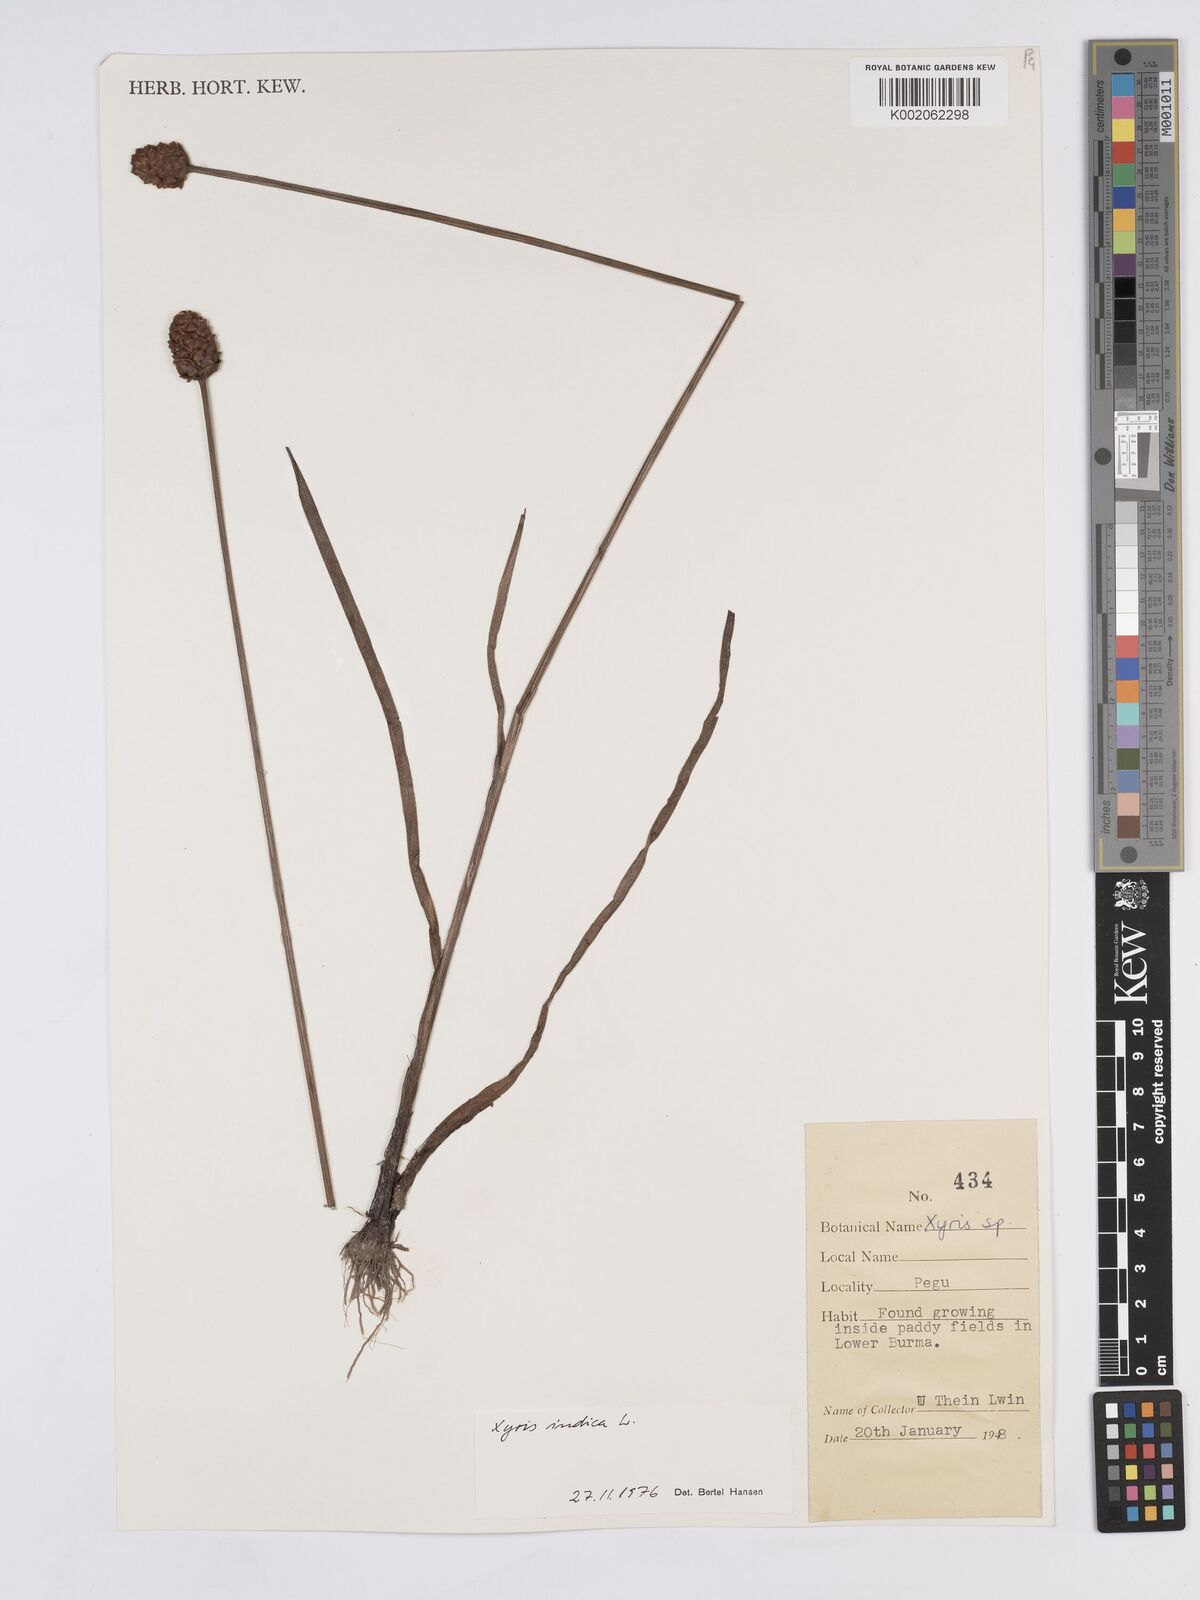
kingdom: Plantae
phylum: Tracheophyta
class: Liliopsida
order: Poales
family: Xyridaceae
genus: Xyris
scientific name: Xyris indica
